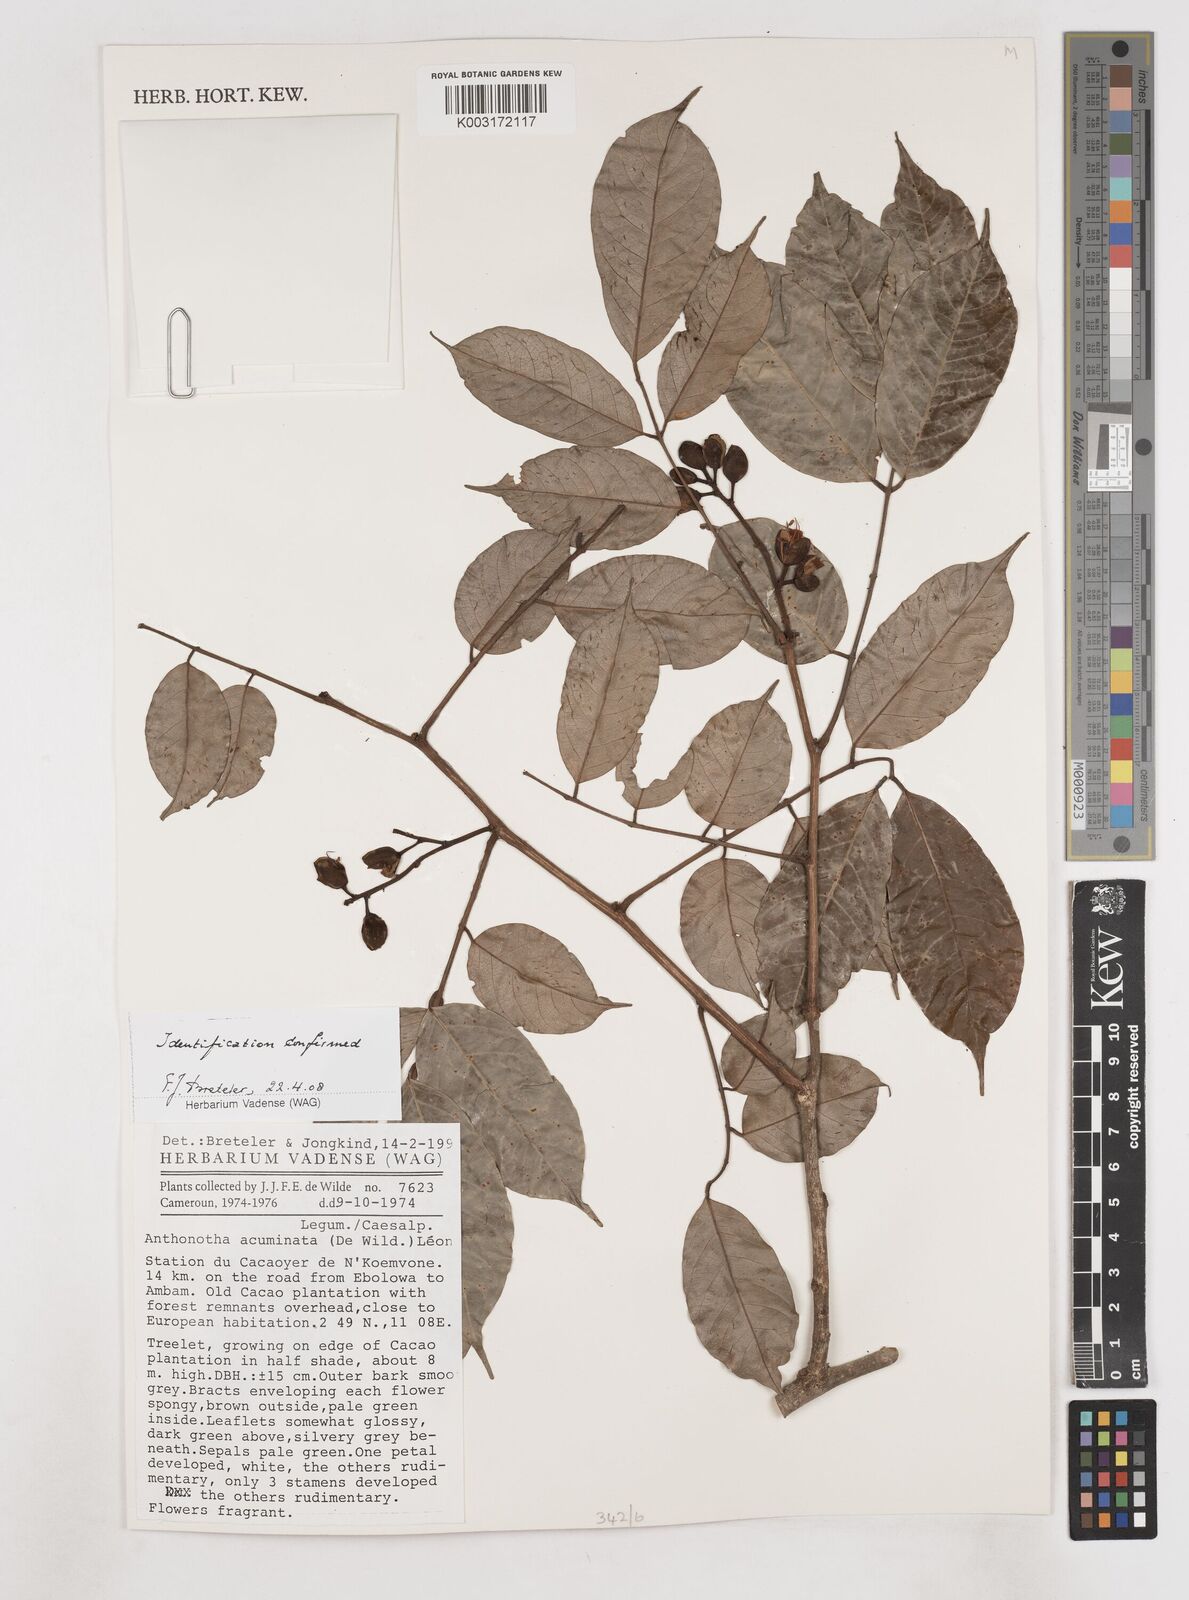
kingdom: Plantae
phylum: Tracheophyta
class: Magnoliopsida
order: Fabales
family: Fabaceae
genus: Anthonotha
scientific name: Anthonotha acuminata
